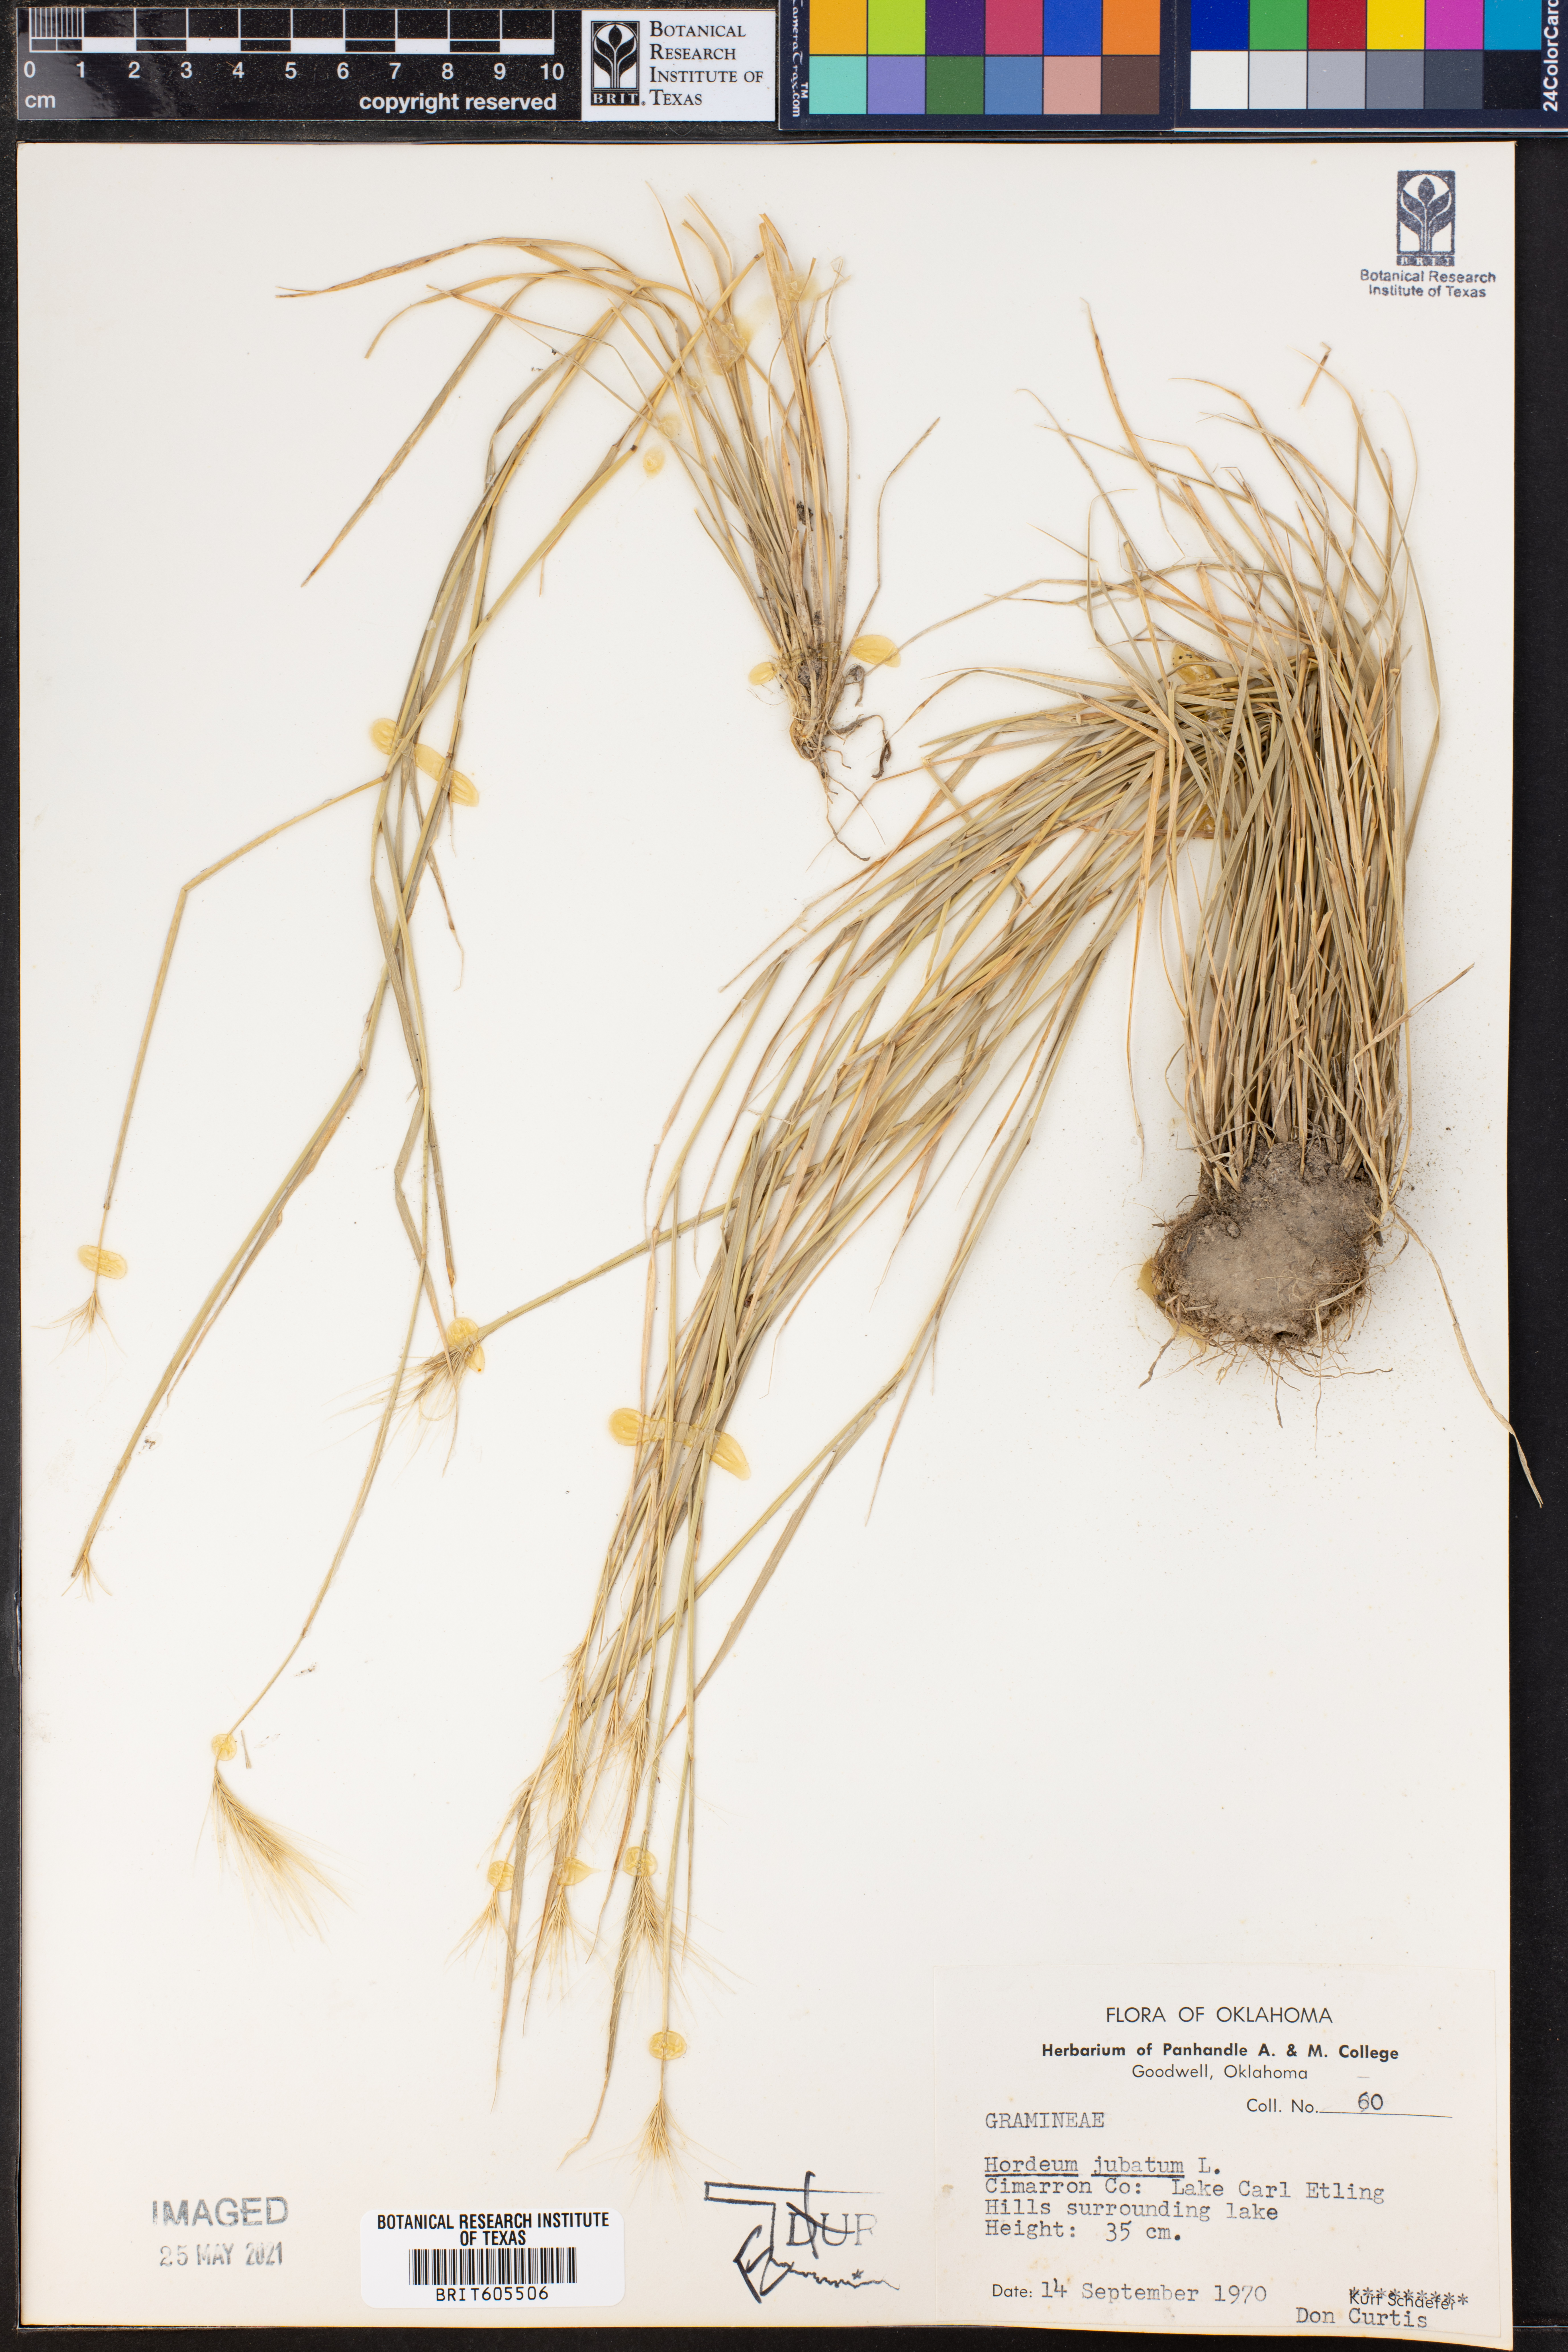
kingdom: Plantae
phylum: Tracheophyta
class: Liliopsida
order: Poales
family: Poaceae
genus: Hordeum
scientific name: Hordeum jubatum
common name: Foxtail barley
